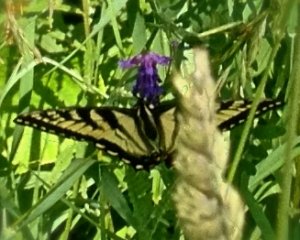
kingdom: Animalia
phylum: Arthropoda
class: Insecta
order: Lepidoptera
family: Papilionidae
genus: Pterourus
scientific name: Pterourus glaucus
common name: Eastern Tiger Swallowtail
